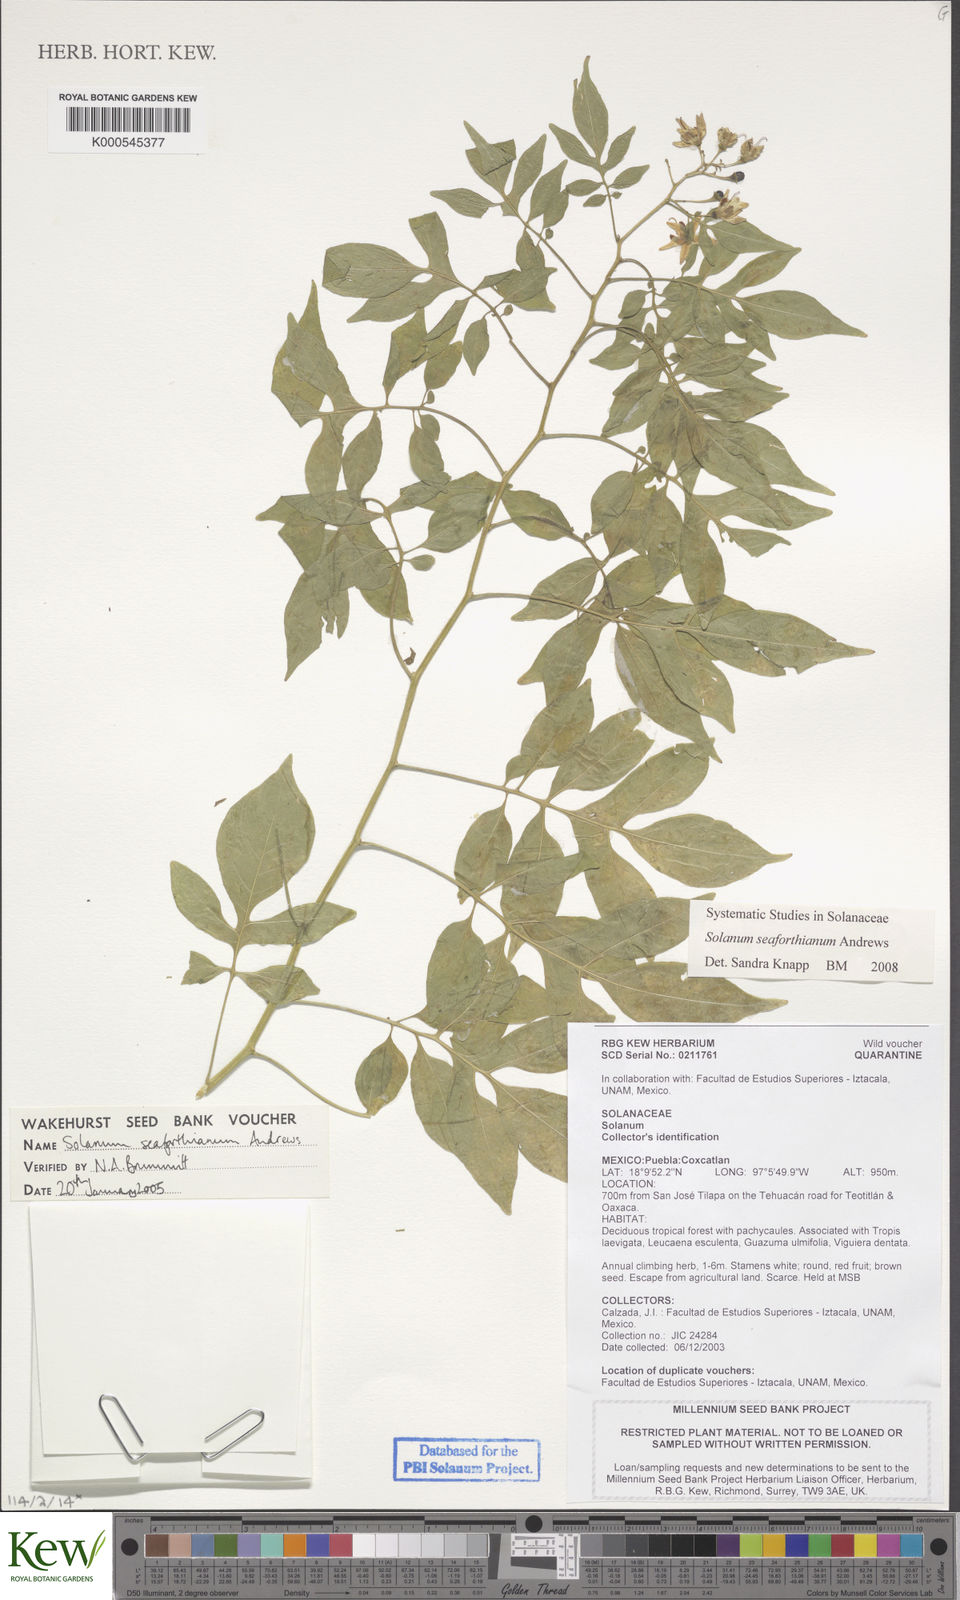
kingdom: Plantae
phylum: Tracheophyta
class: Magnoliopsida
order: Solanales
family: Solanaceae
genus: Solanum
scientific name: Solanum seaforthianum
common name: Brazilian nightshade
